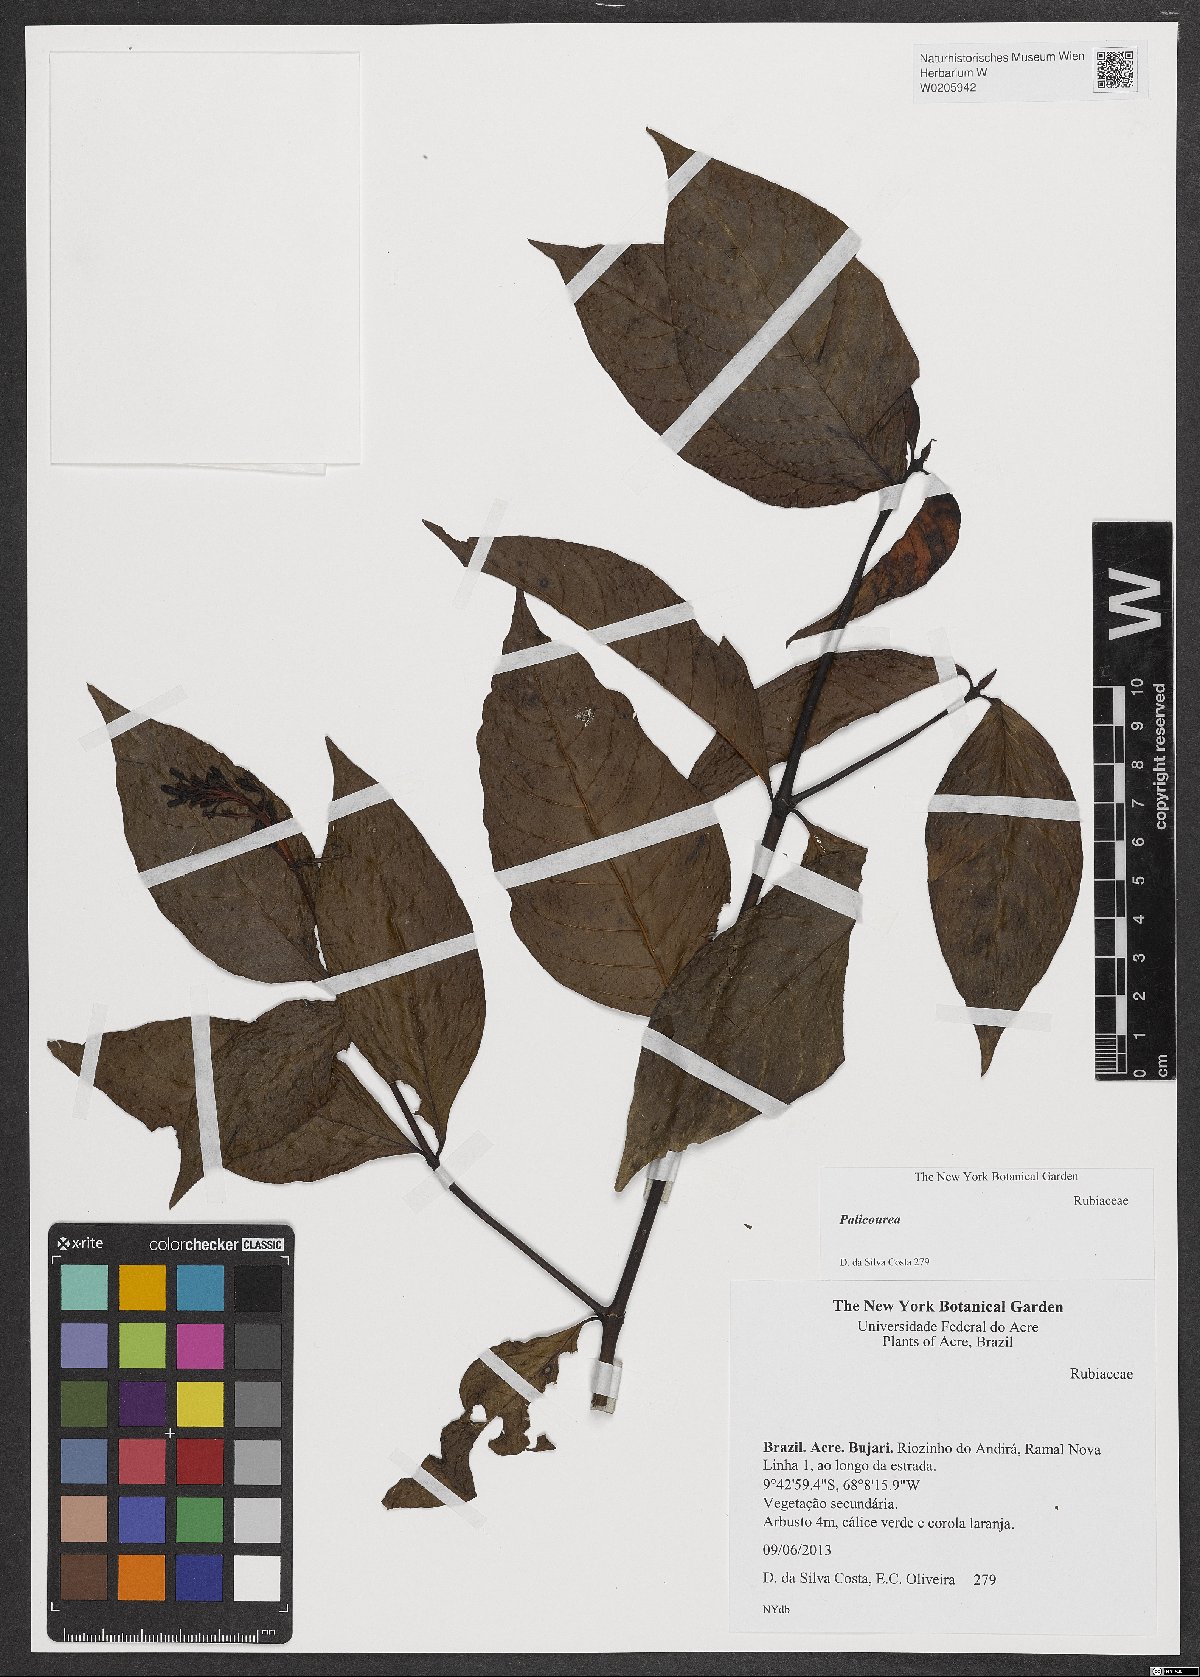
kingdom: Plantae
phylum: Tracheophyta
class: Magnoliopsida
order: Gentianales
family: Rubiaceae
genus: Palicourea
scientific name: Palicourea
